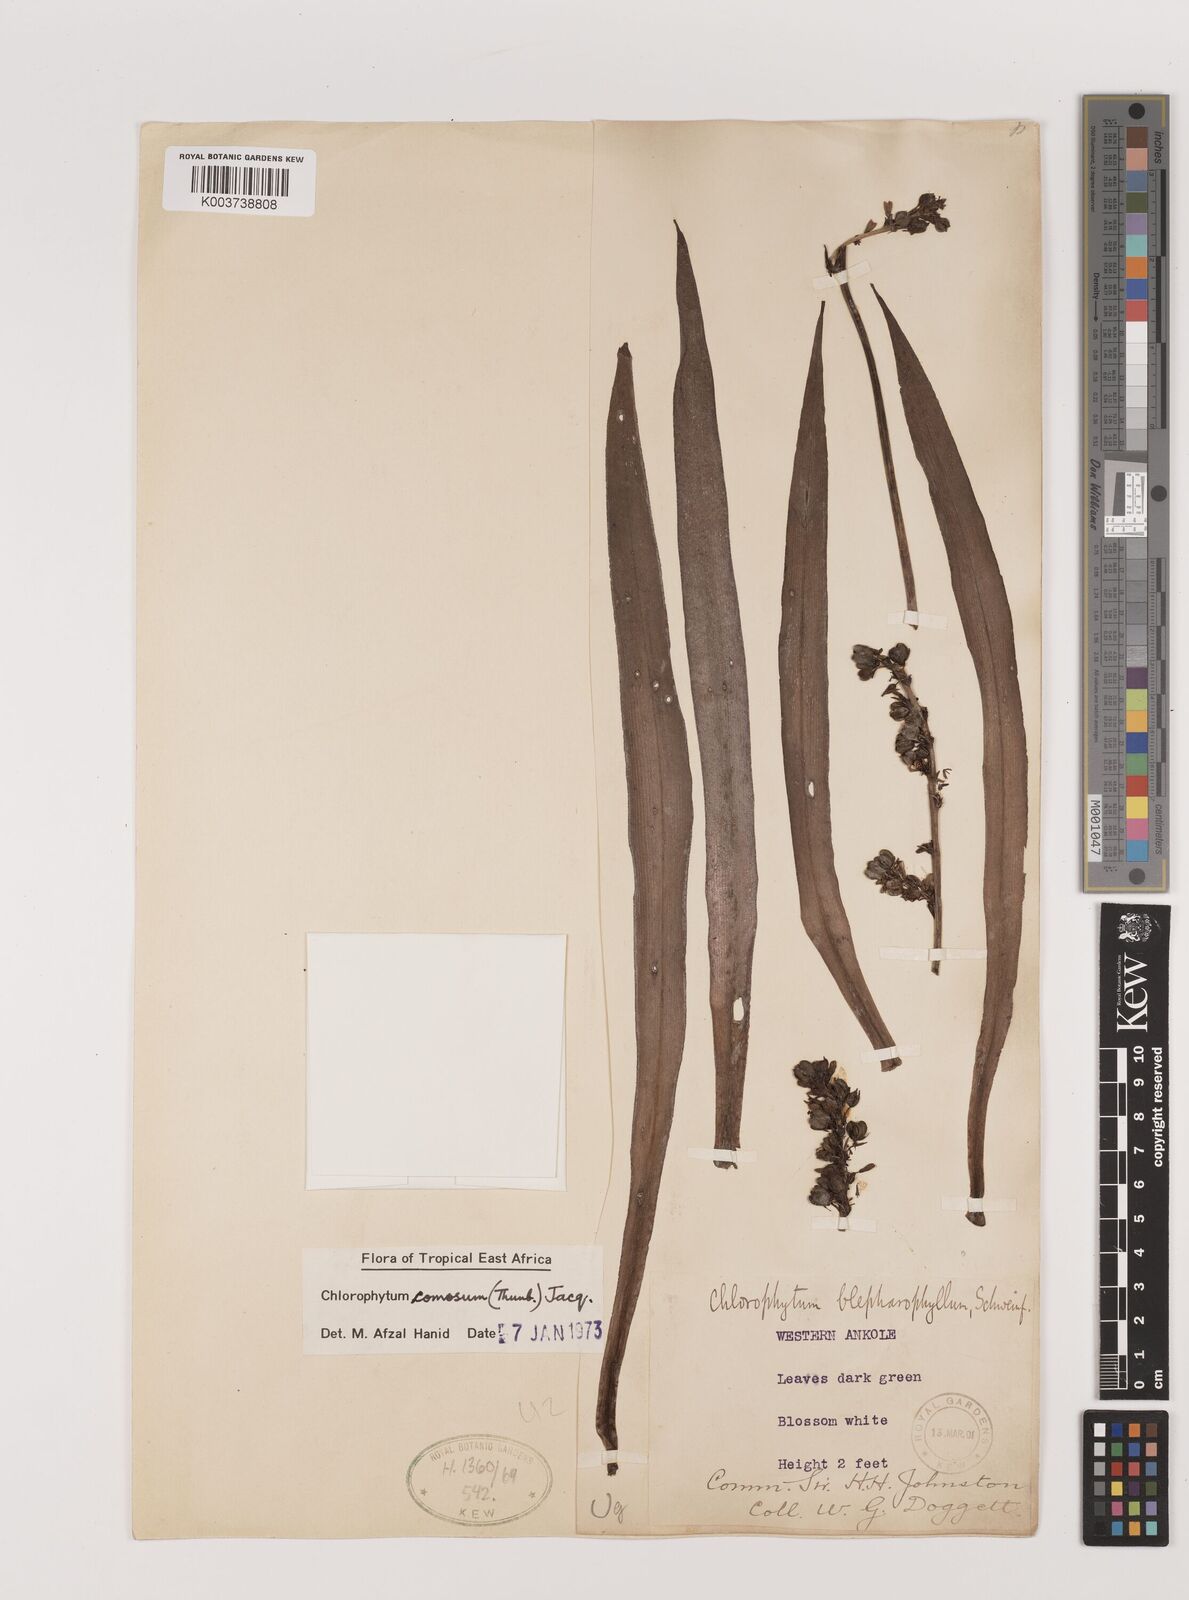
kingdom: Plantae
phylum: Tracheophyta
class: Liliopsida
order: Asparagales
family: Asparagaceae
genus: Chlorophytum
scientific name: Chlorophytum comosum
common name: Spider plant
